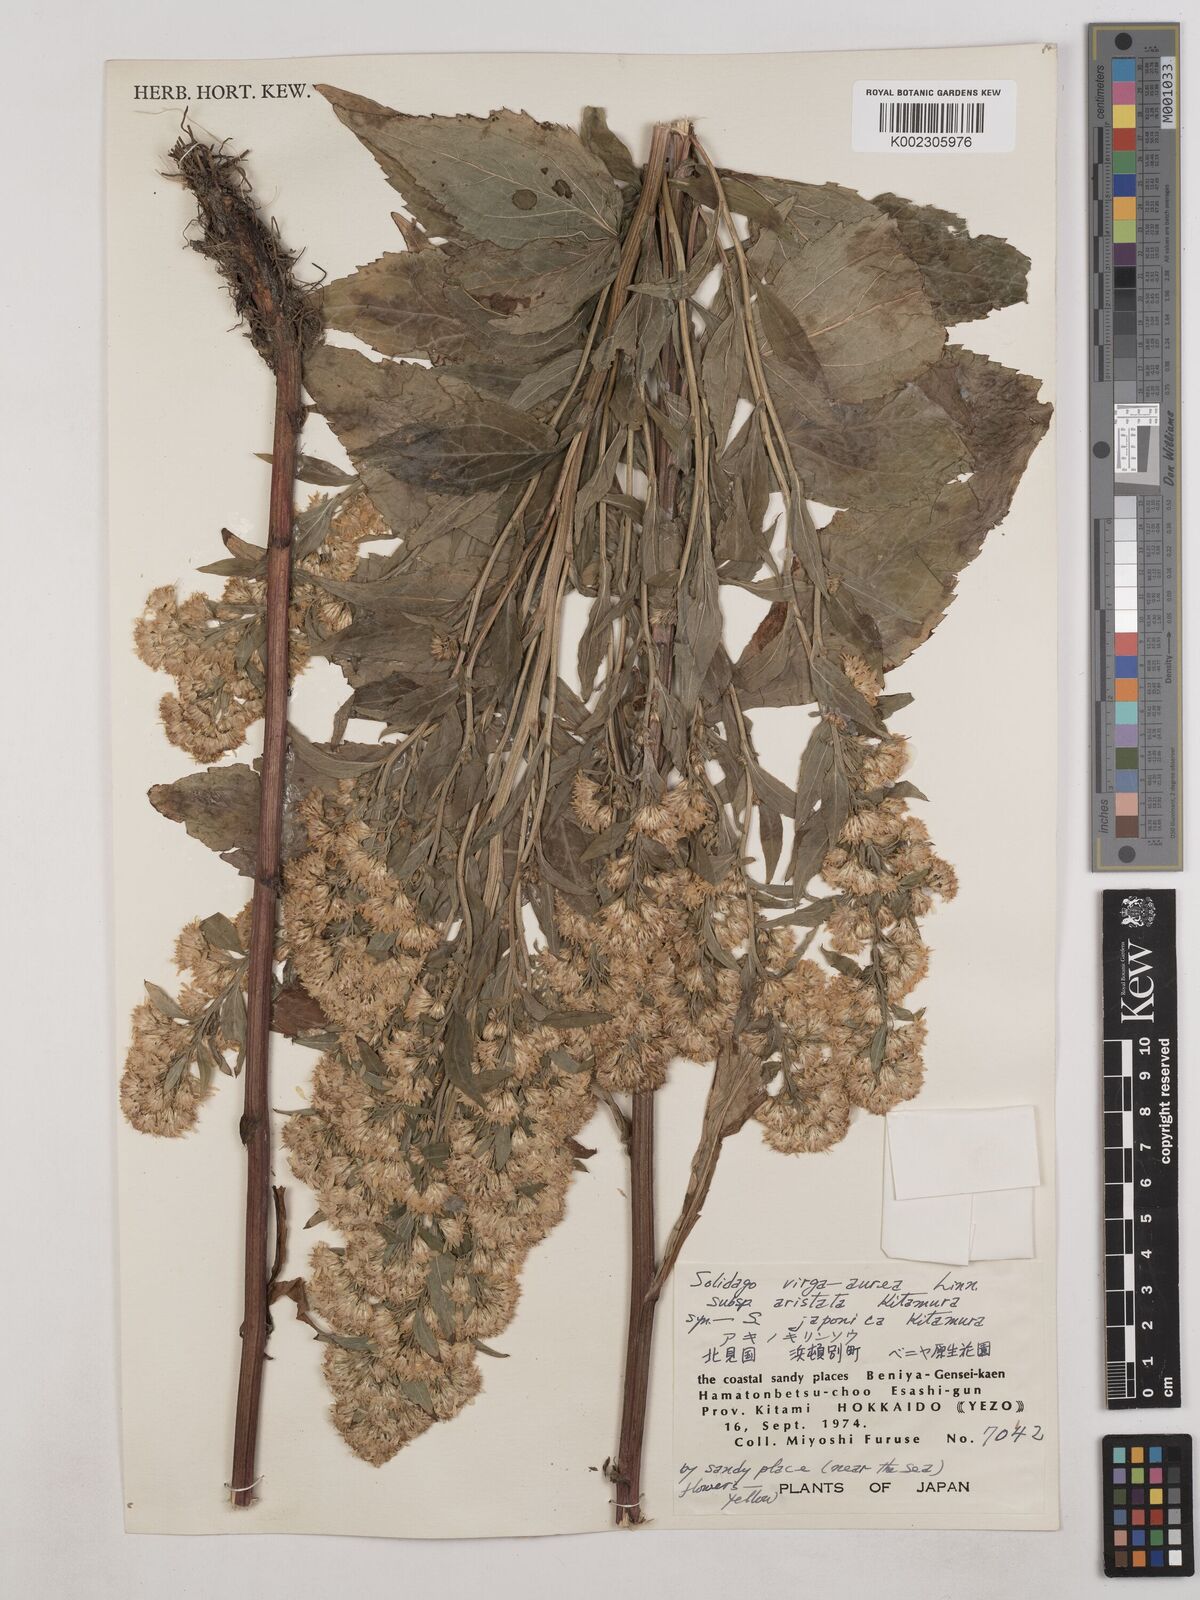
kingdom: Plantae
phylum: Tracheophyta
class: Magnoliopsida
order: Asterales
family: Asteraceae
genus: Solidago
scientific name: Solidago virgaurea
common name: Goldenrod
